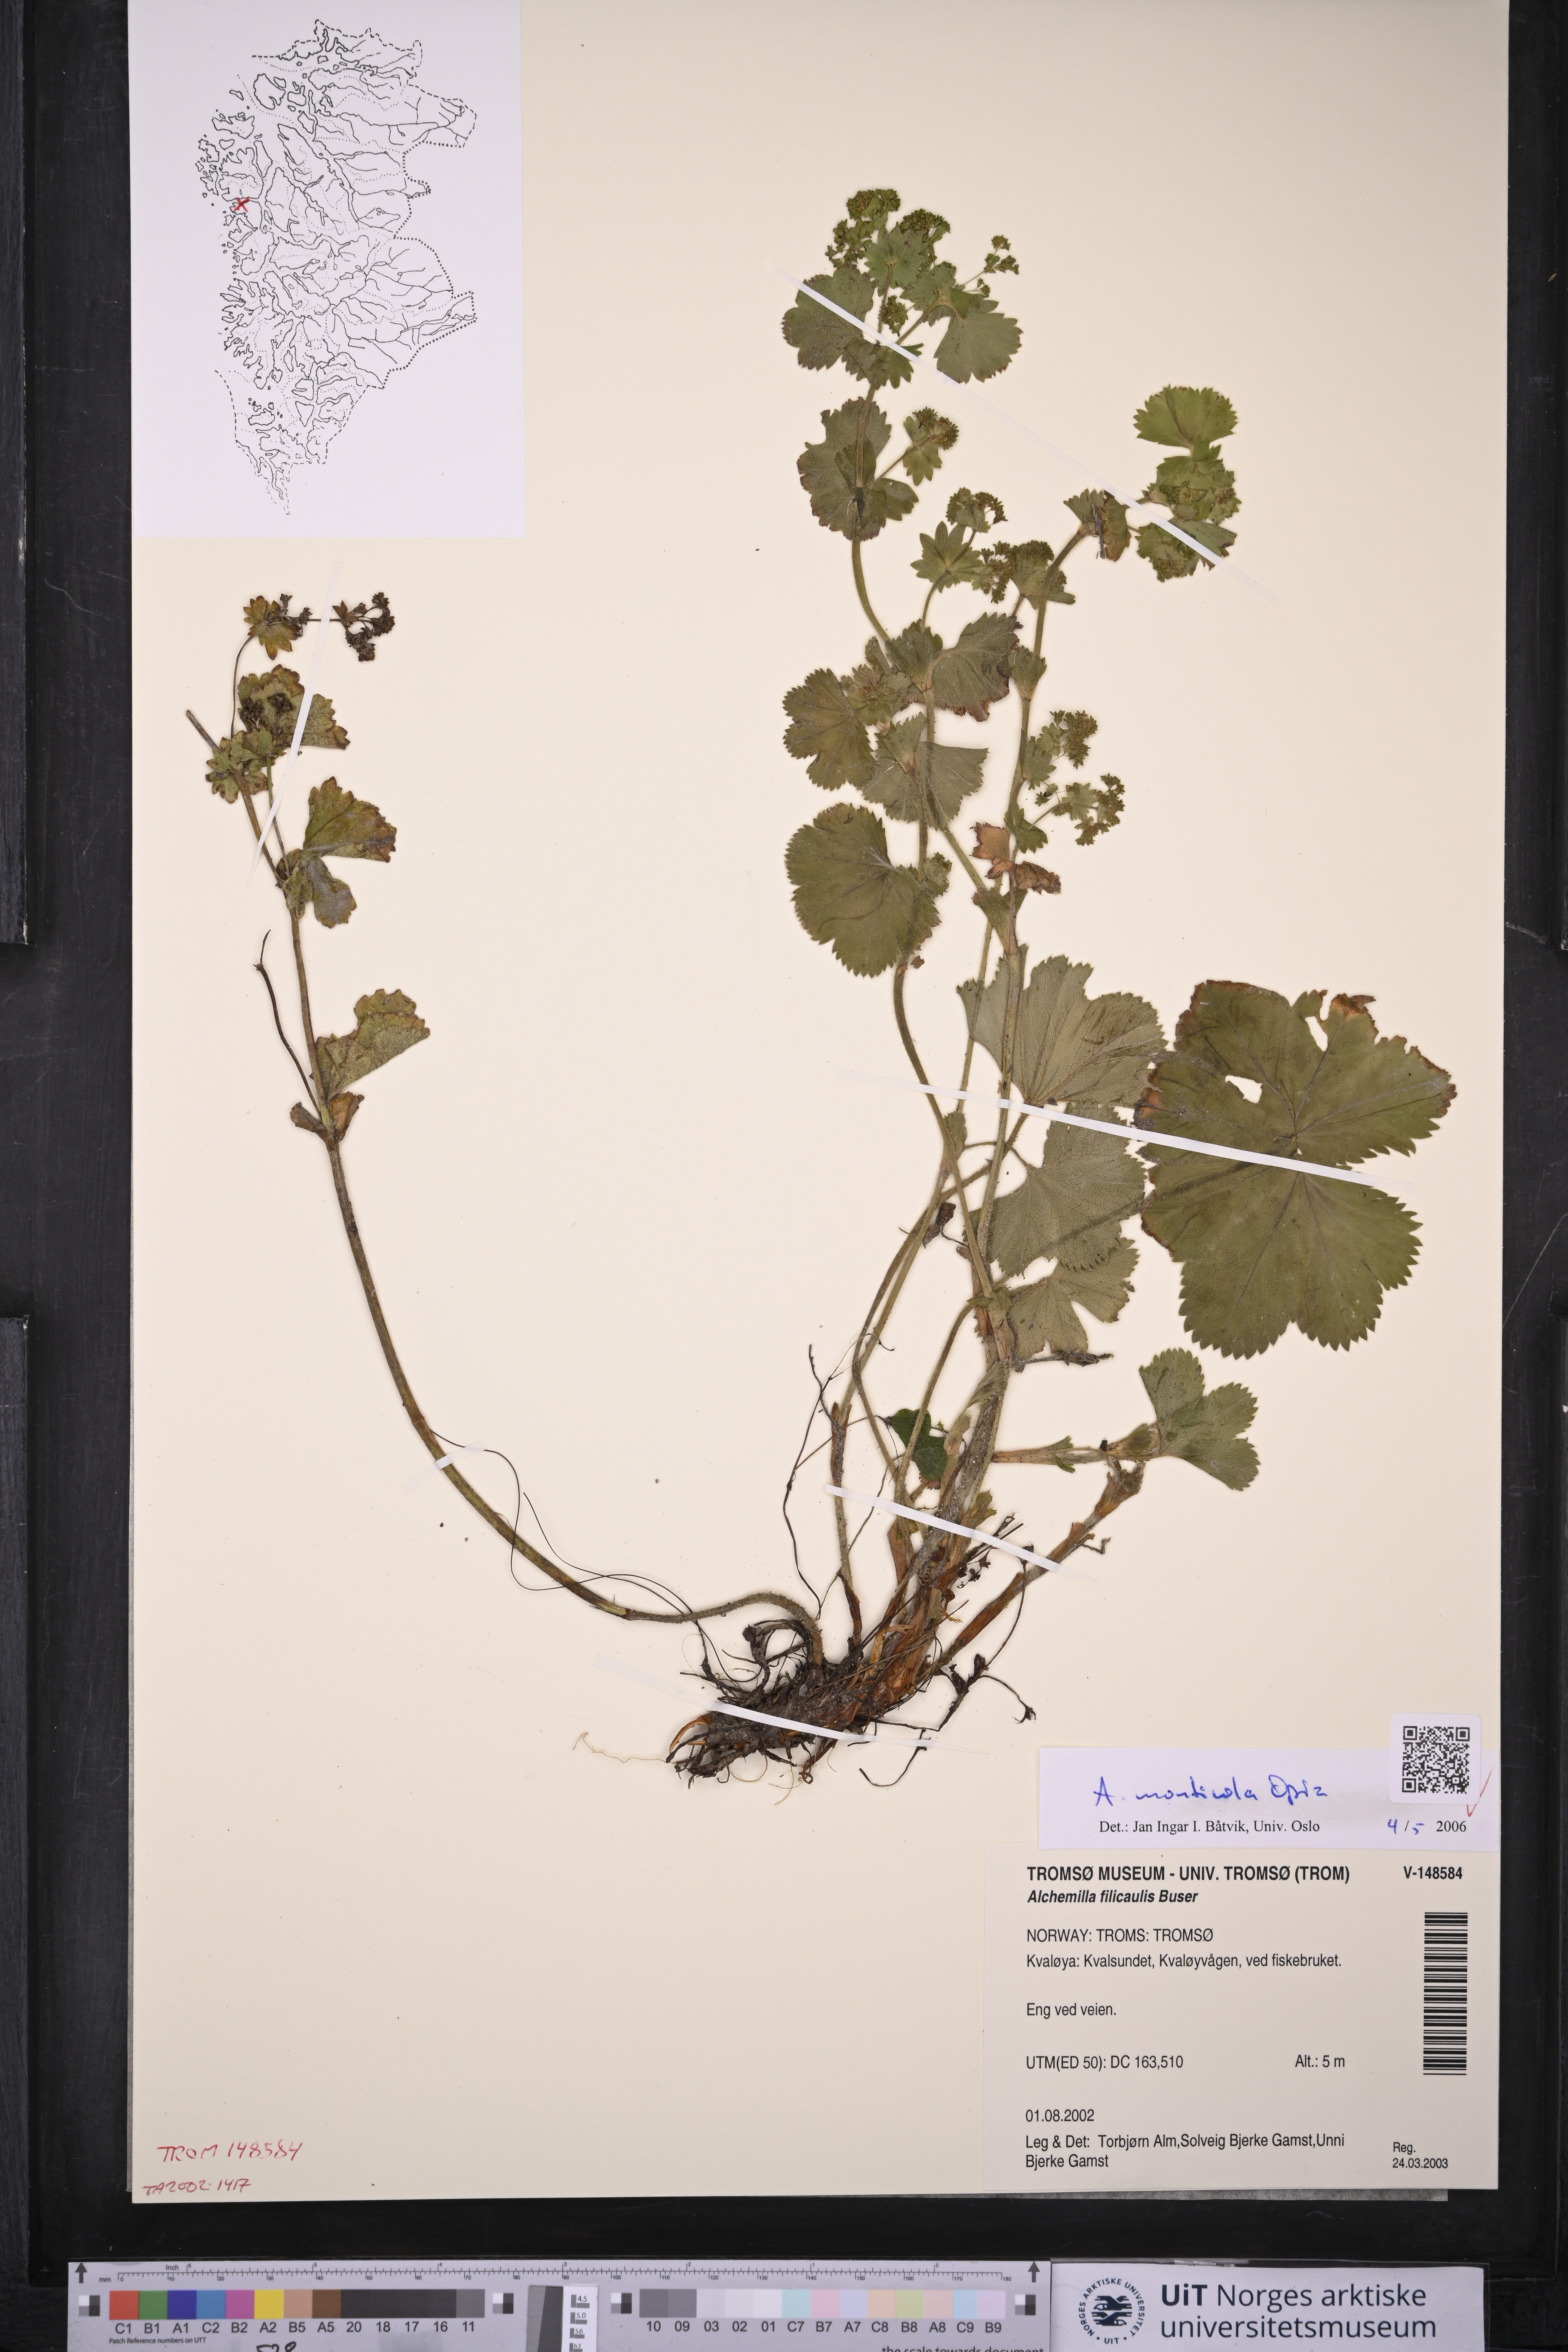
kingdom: Plantae
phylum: Tracheophyta
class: Magnoliopsida
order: Rosales
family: Rosaceae
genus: Alchemilla
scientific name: Alchemilla monticola
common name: Hairy lady's mantle
